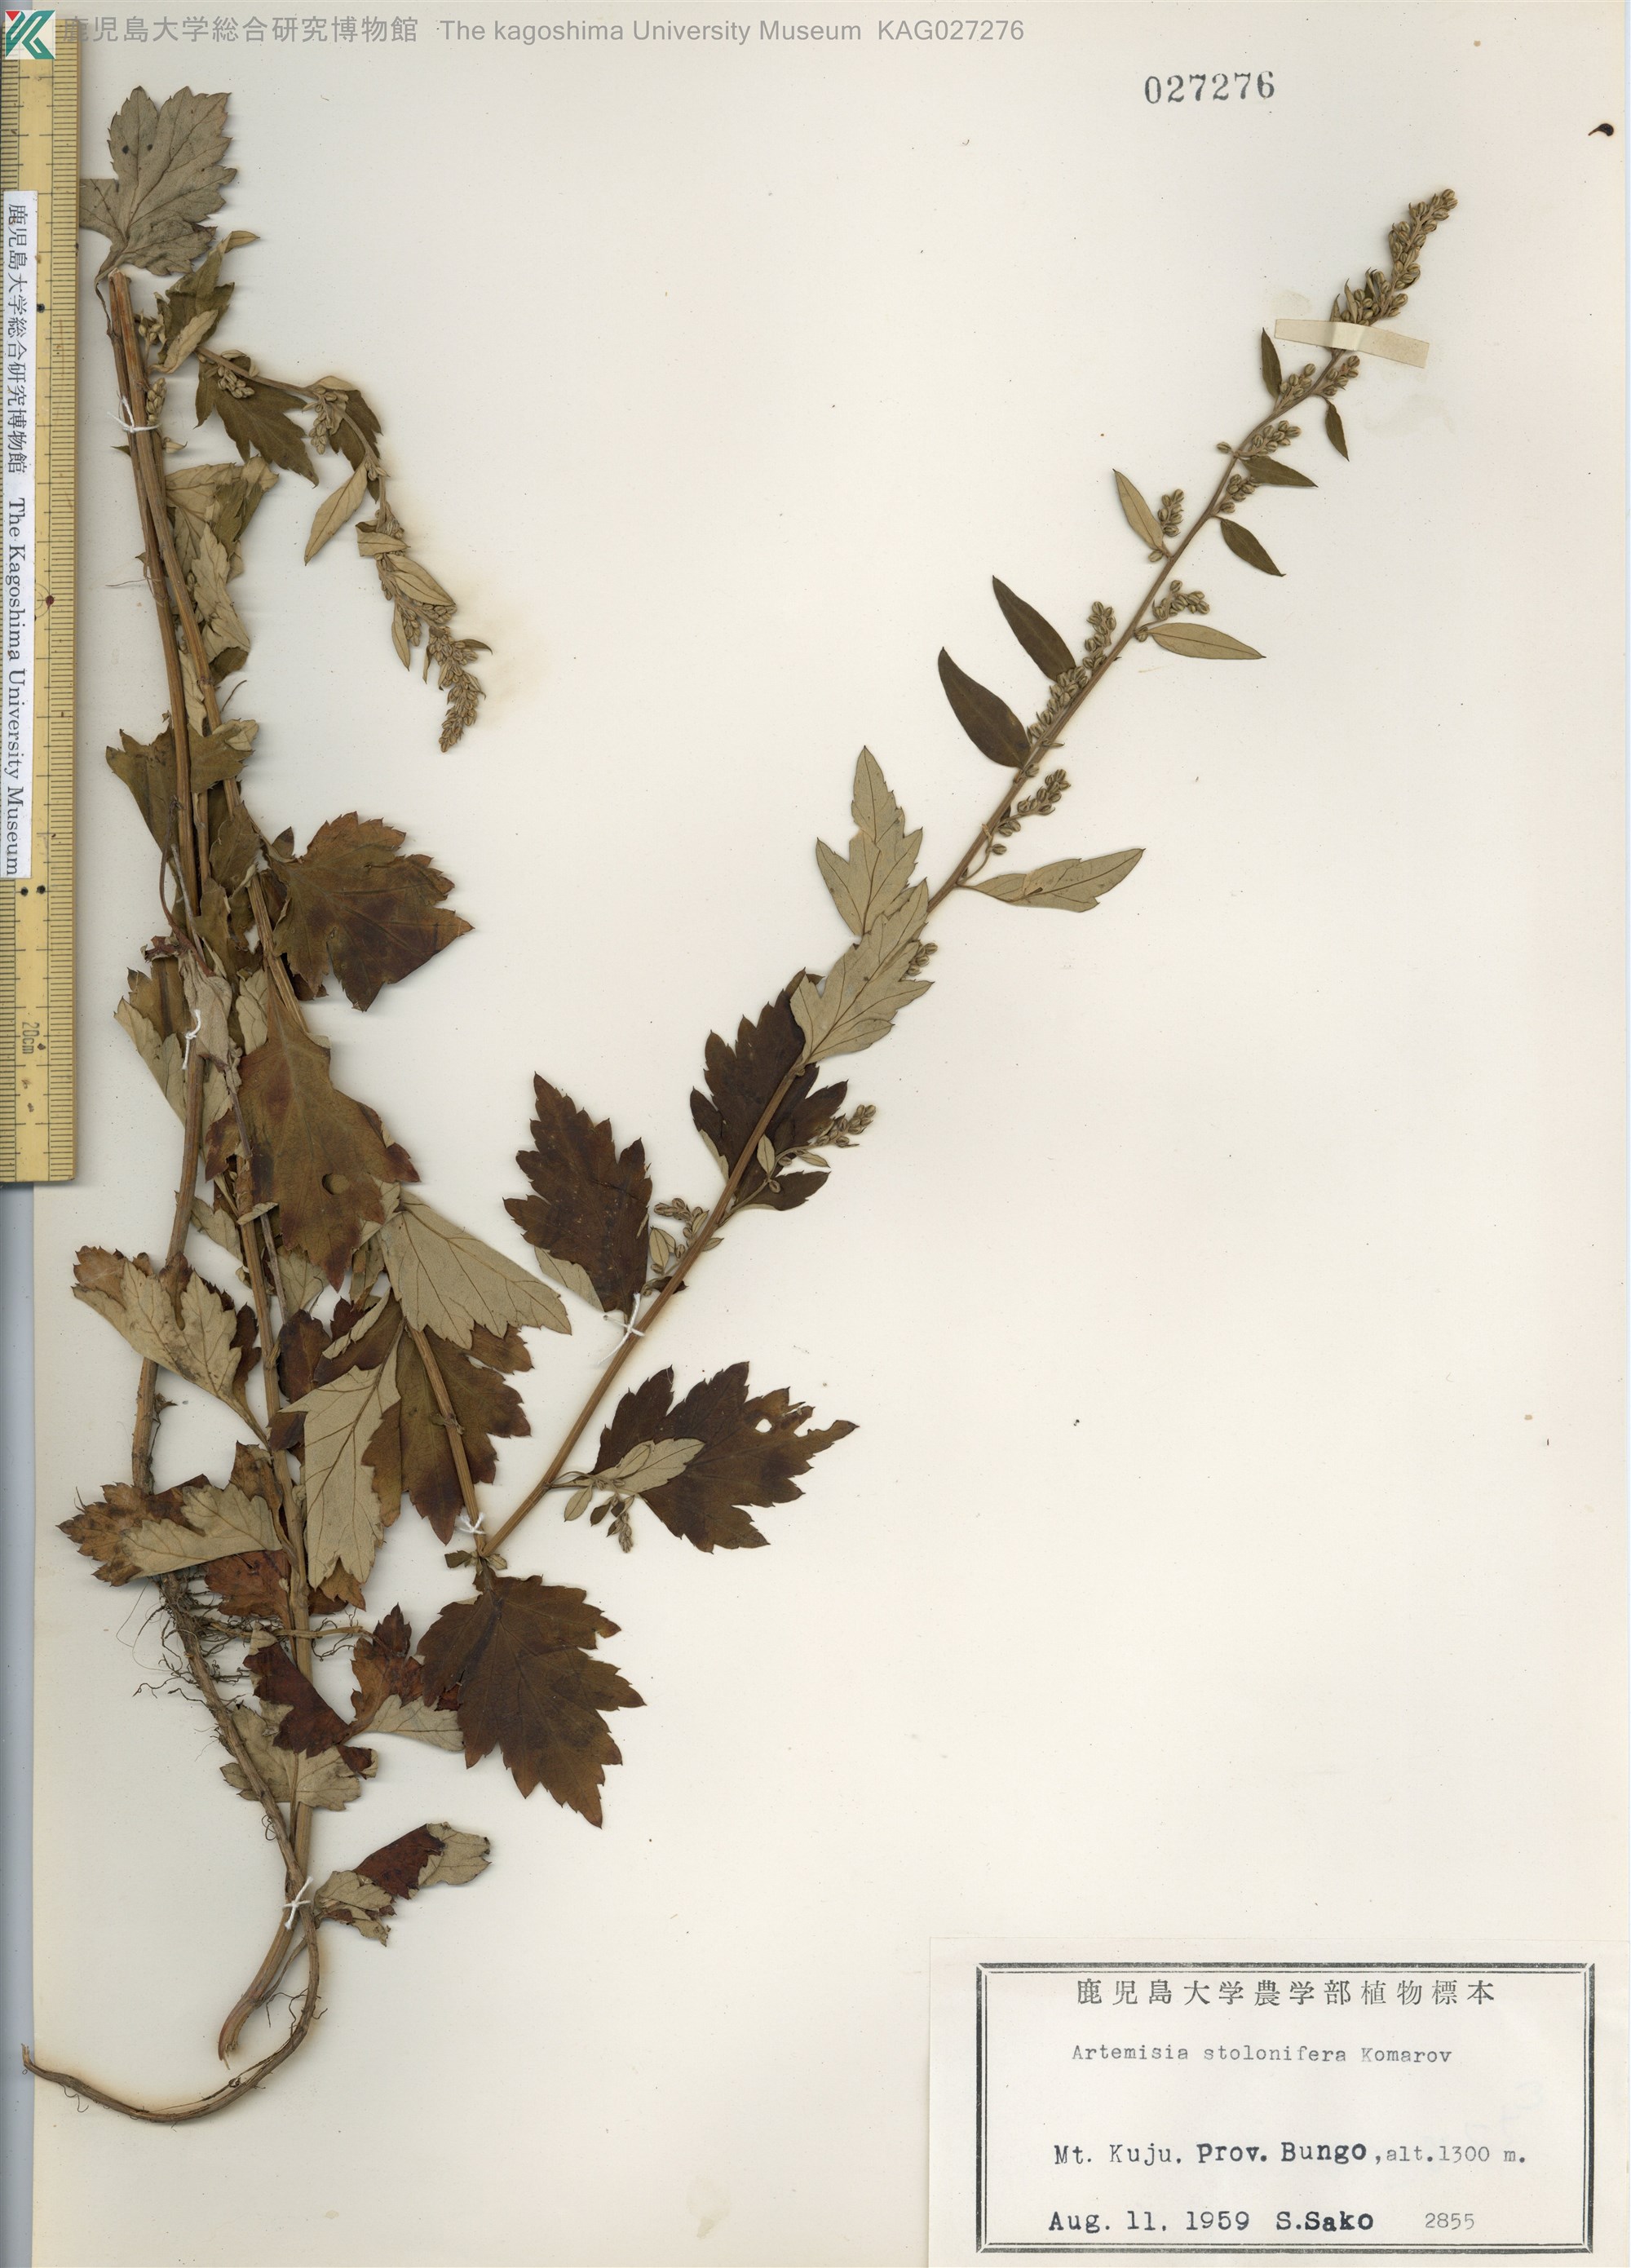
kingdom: Plantae
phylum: Tracheophyta
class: Magnoliopsida
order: Asterales
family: Asteraceae
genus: Artemisia
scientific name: Artemisia stolonifera
